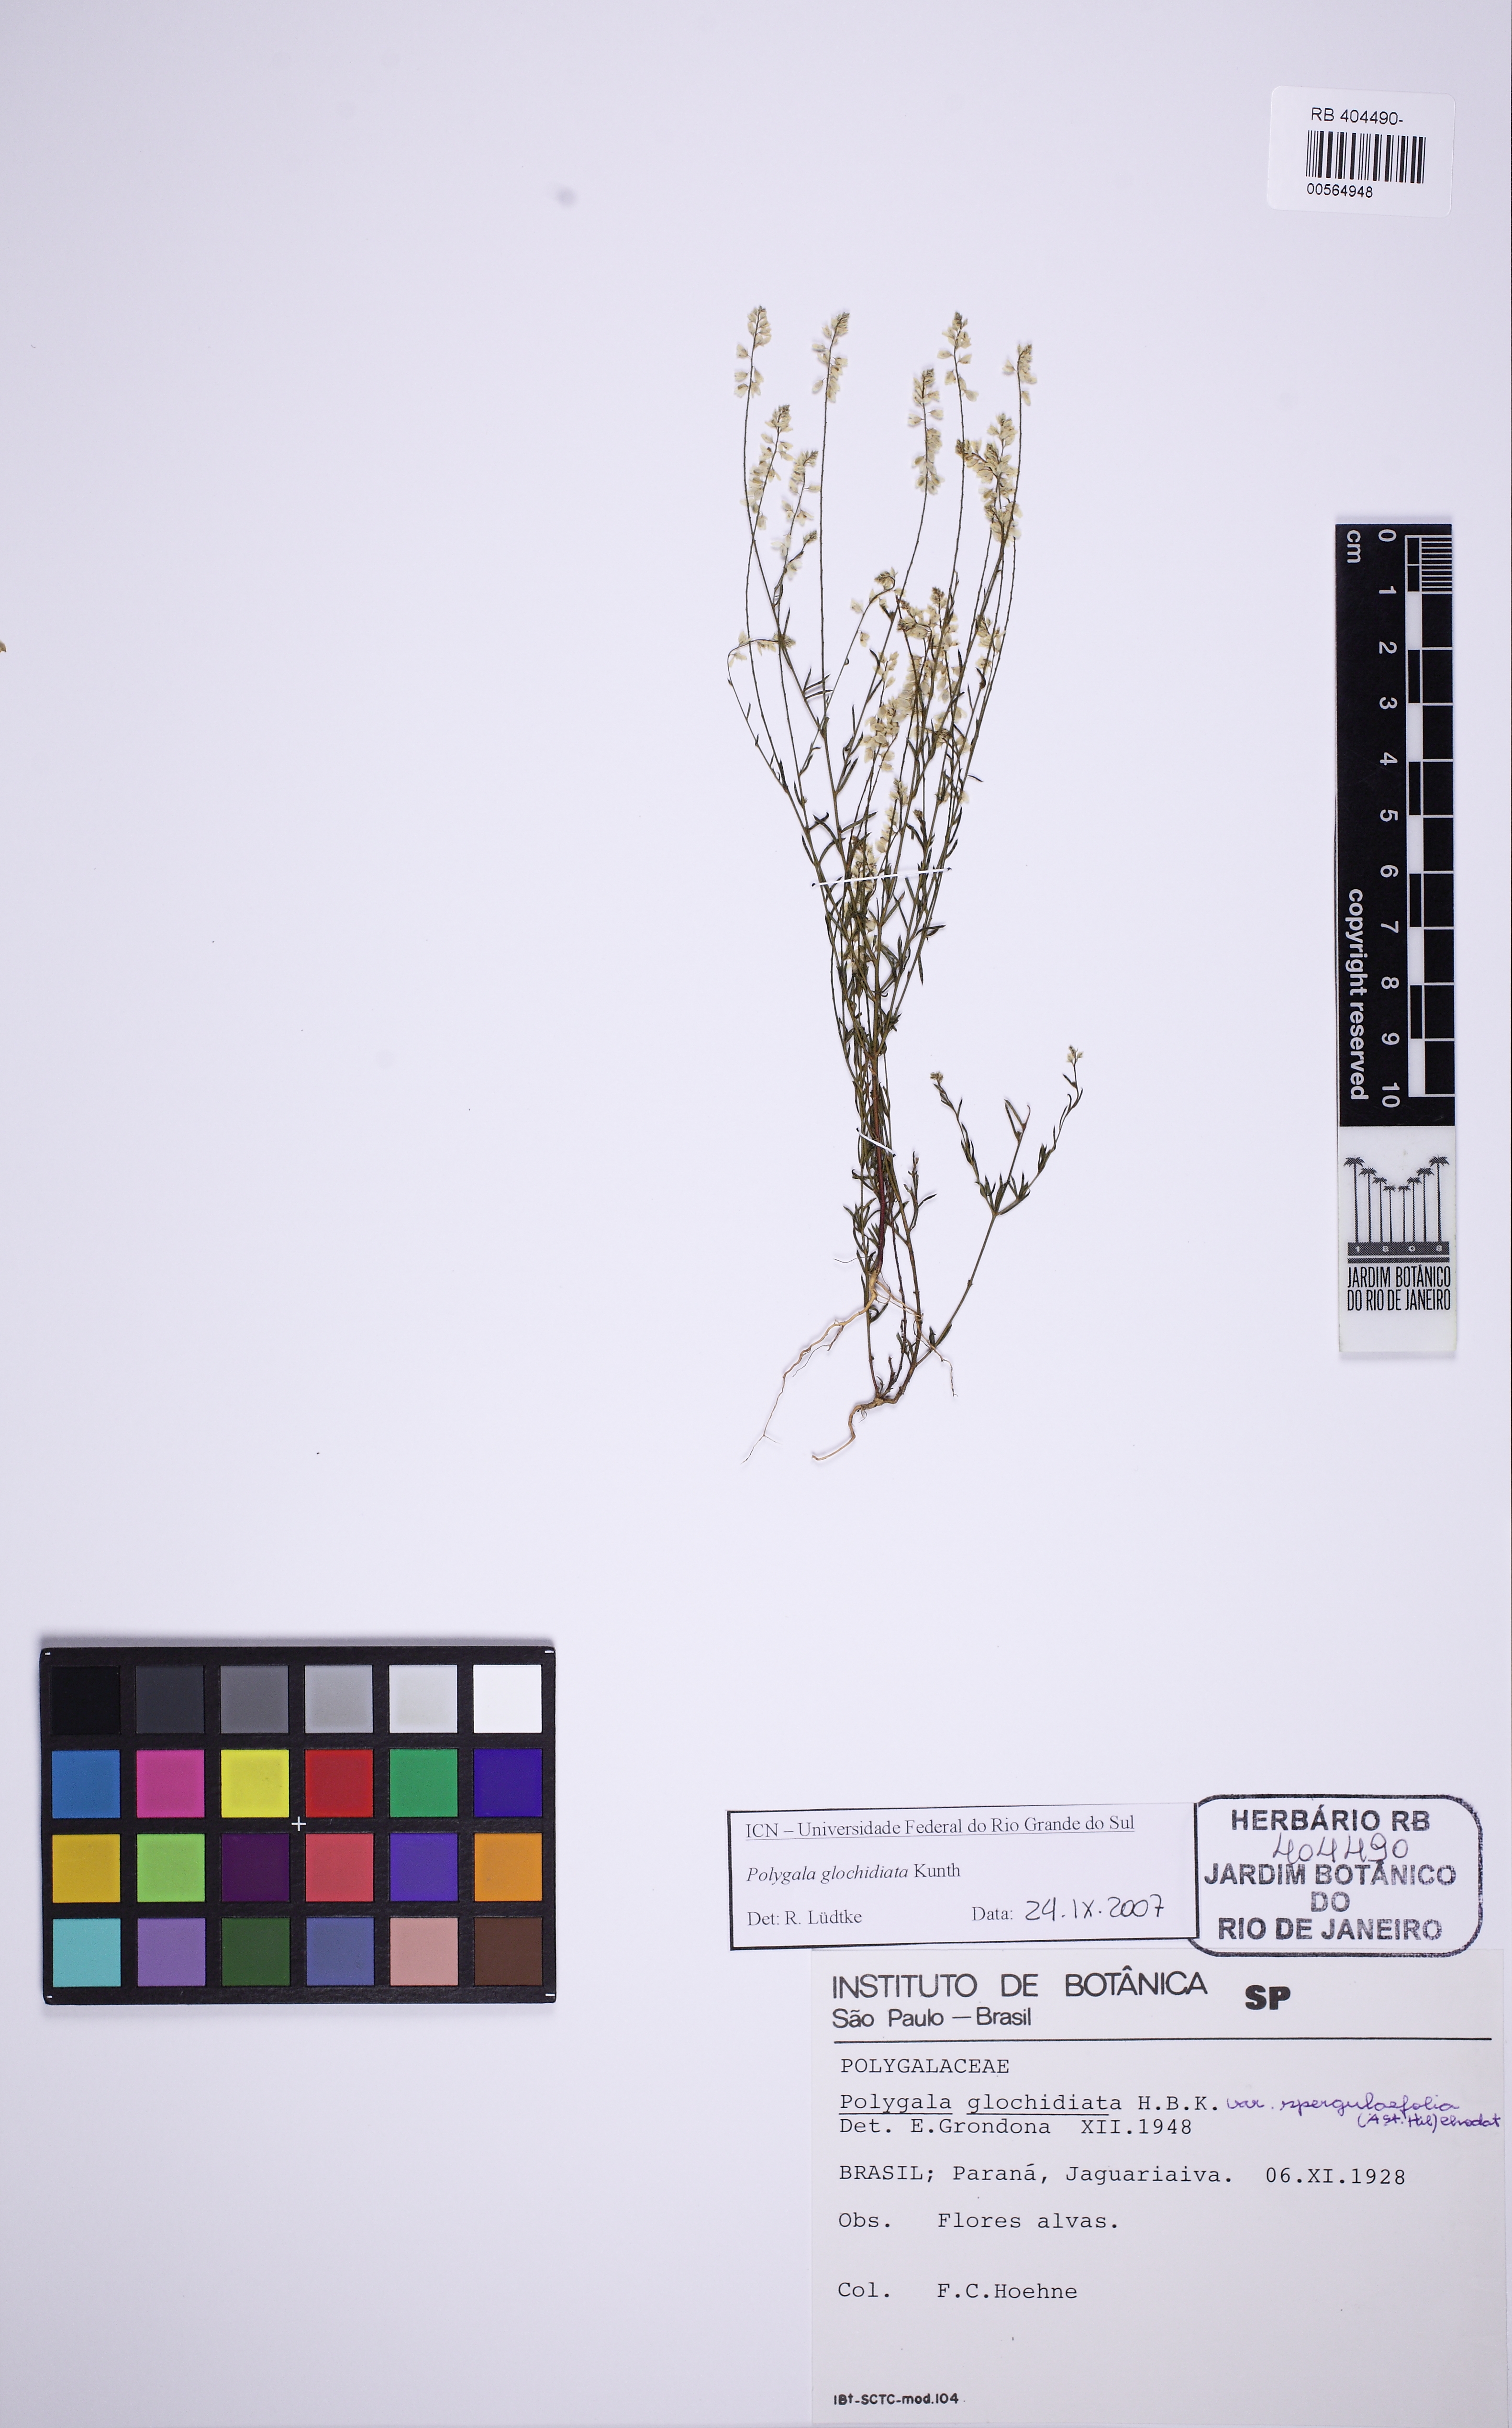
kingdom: Plantae
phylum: Tracheophyta
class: Magnoliopsida
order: Fabales
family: Polygalaceae
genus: Polygala
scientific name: Polygala glochidiata
